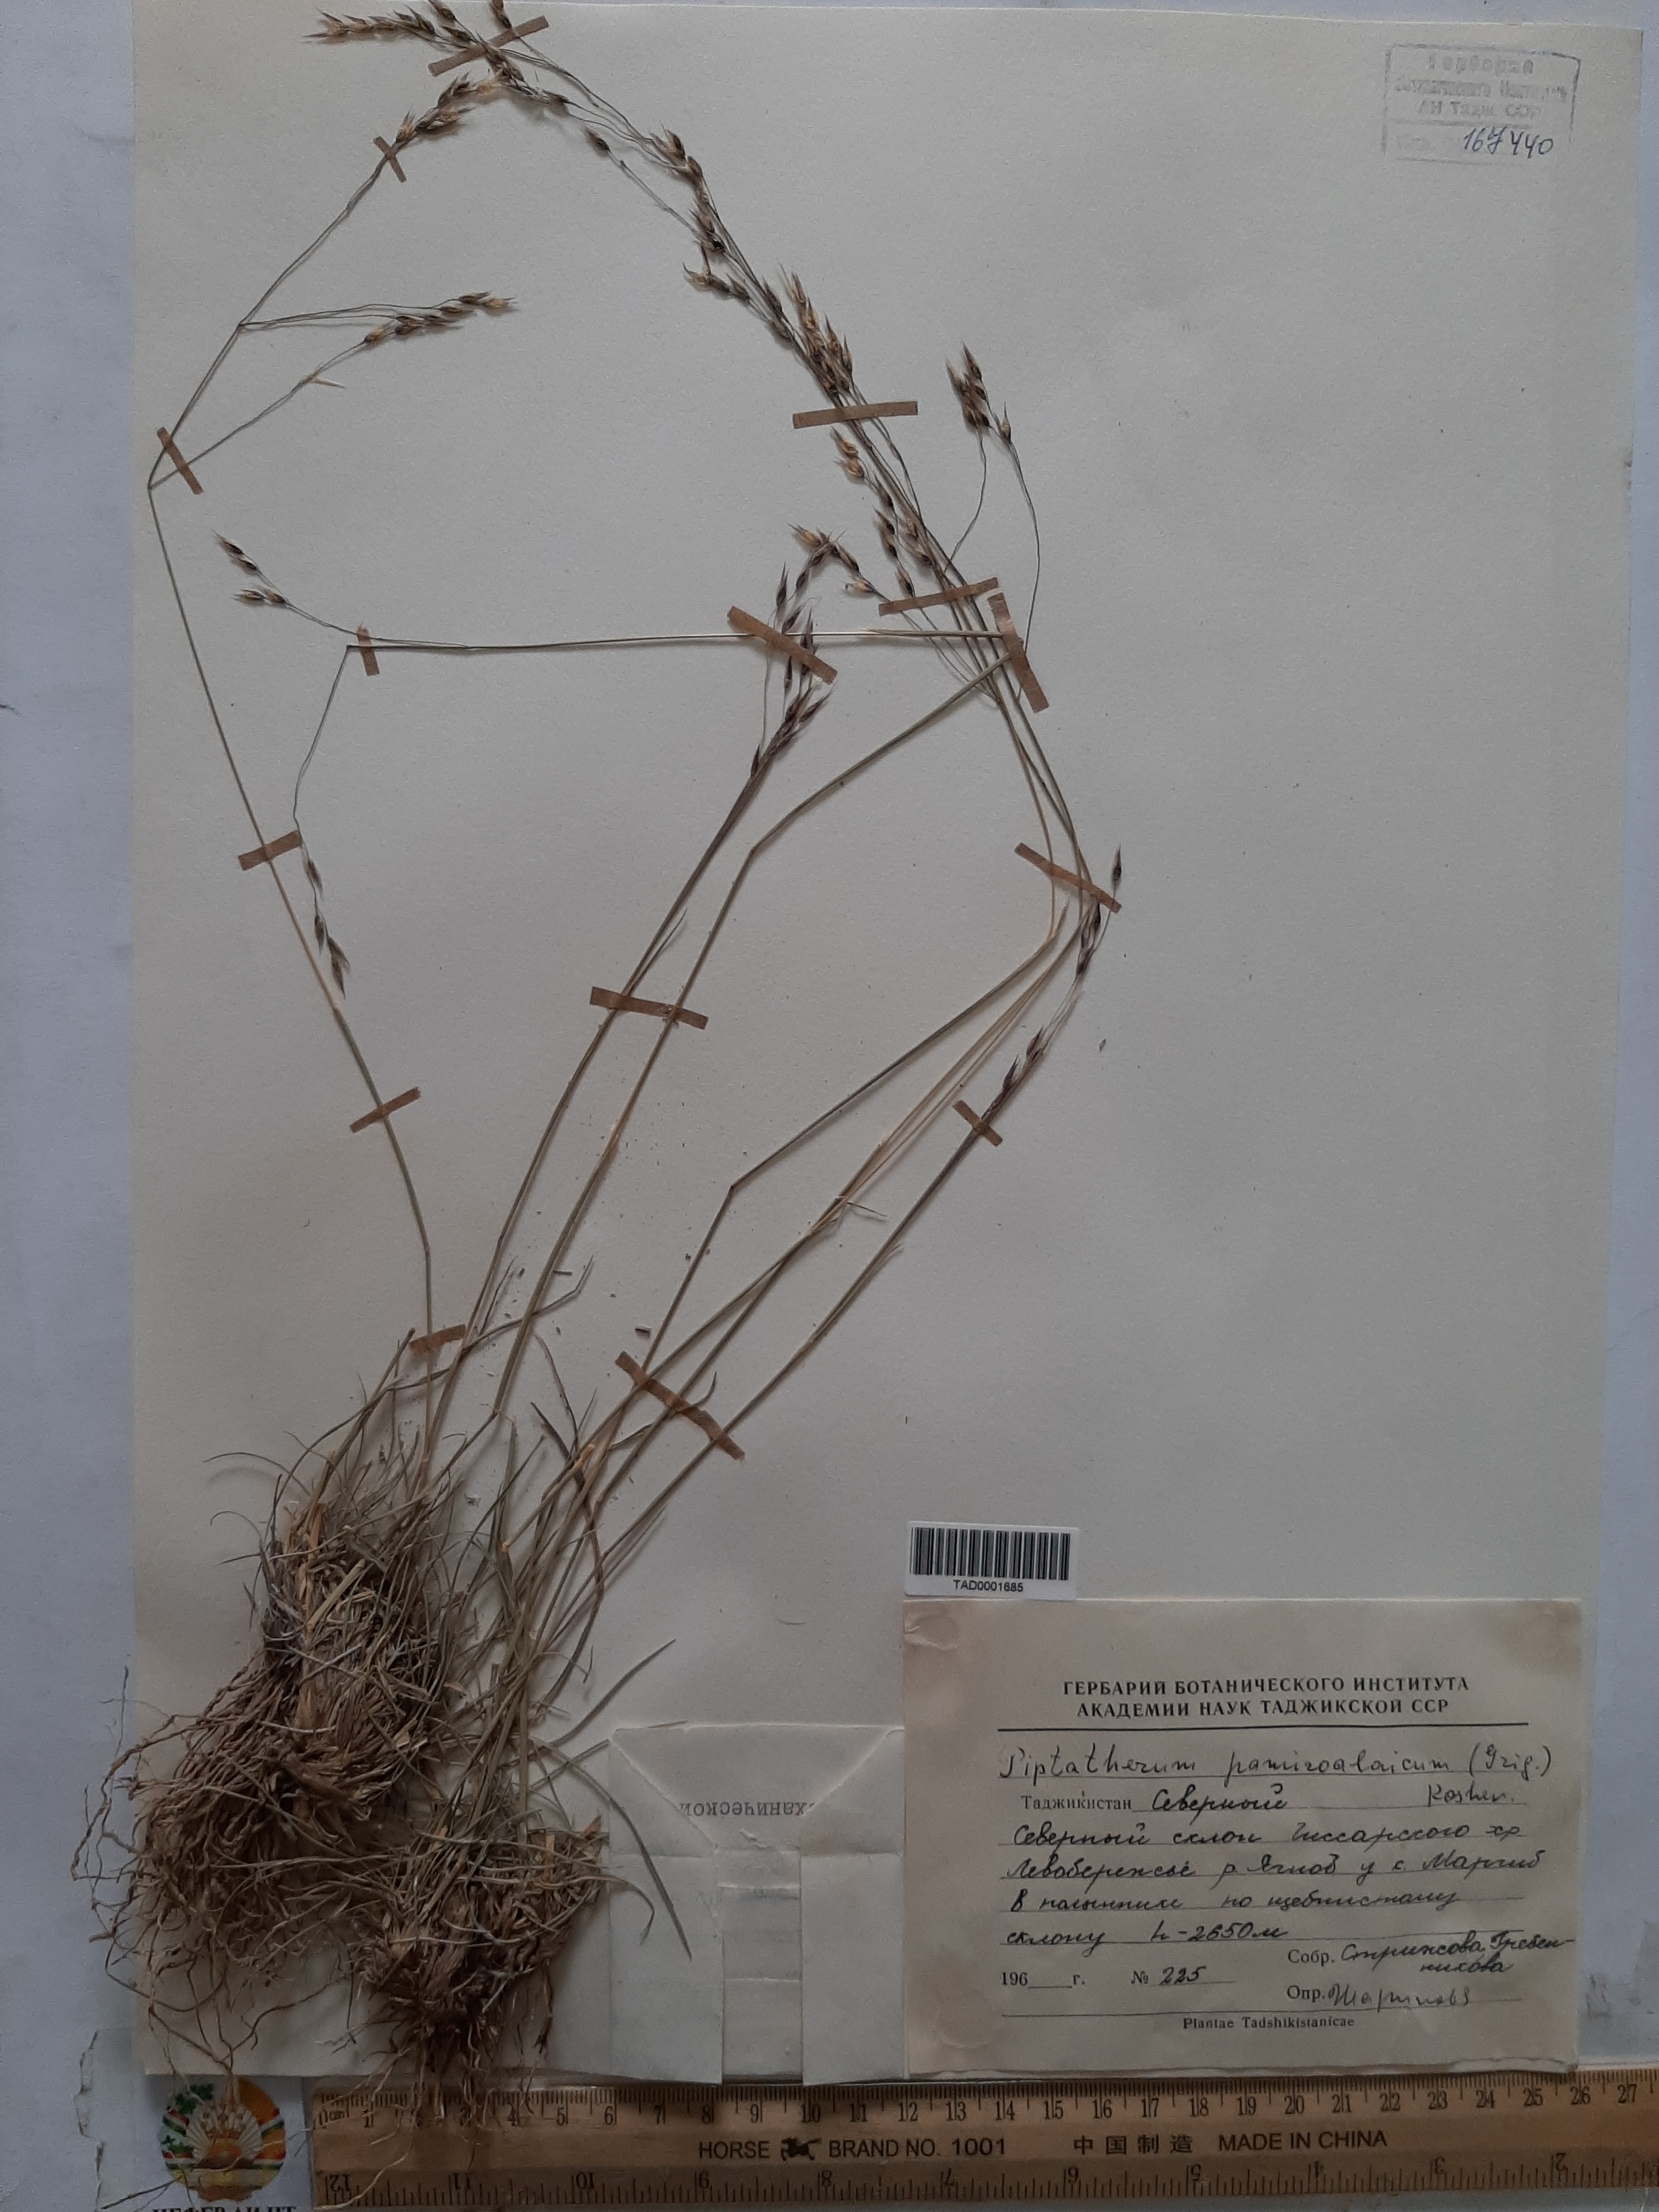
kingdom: Plantae
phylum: Tracheophyta
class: Liliopsida
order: Poales
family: Poaceae
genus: Piptatherum
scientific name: Piptatherum pamiralaicum
